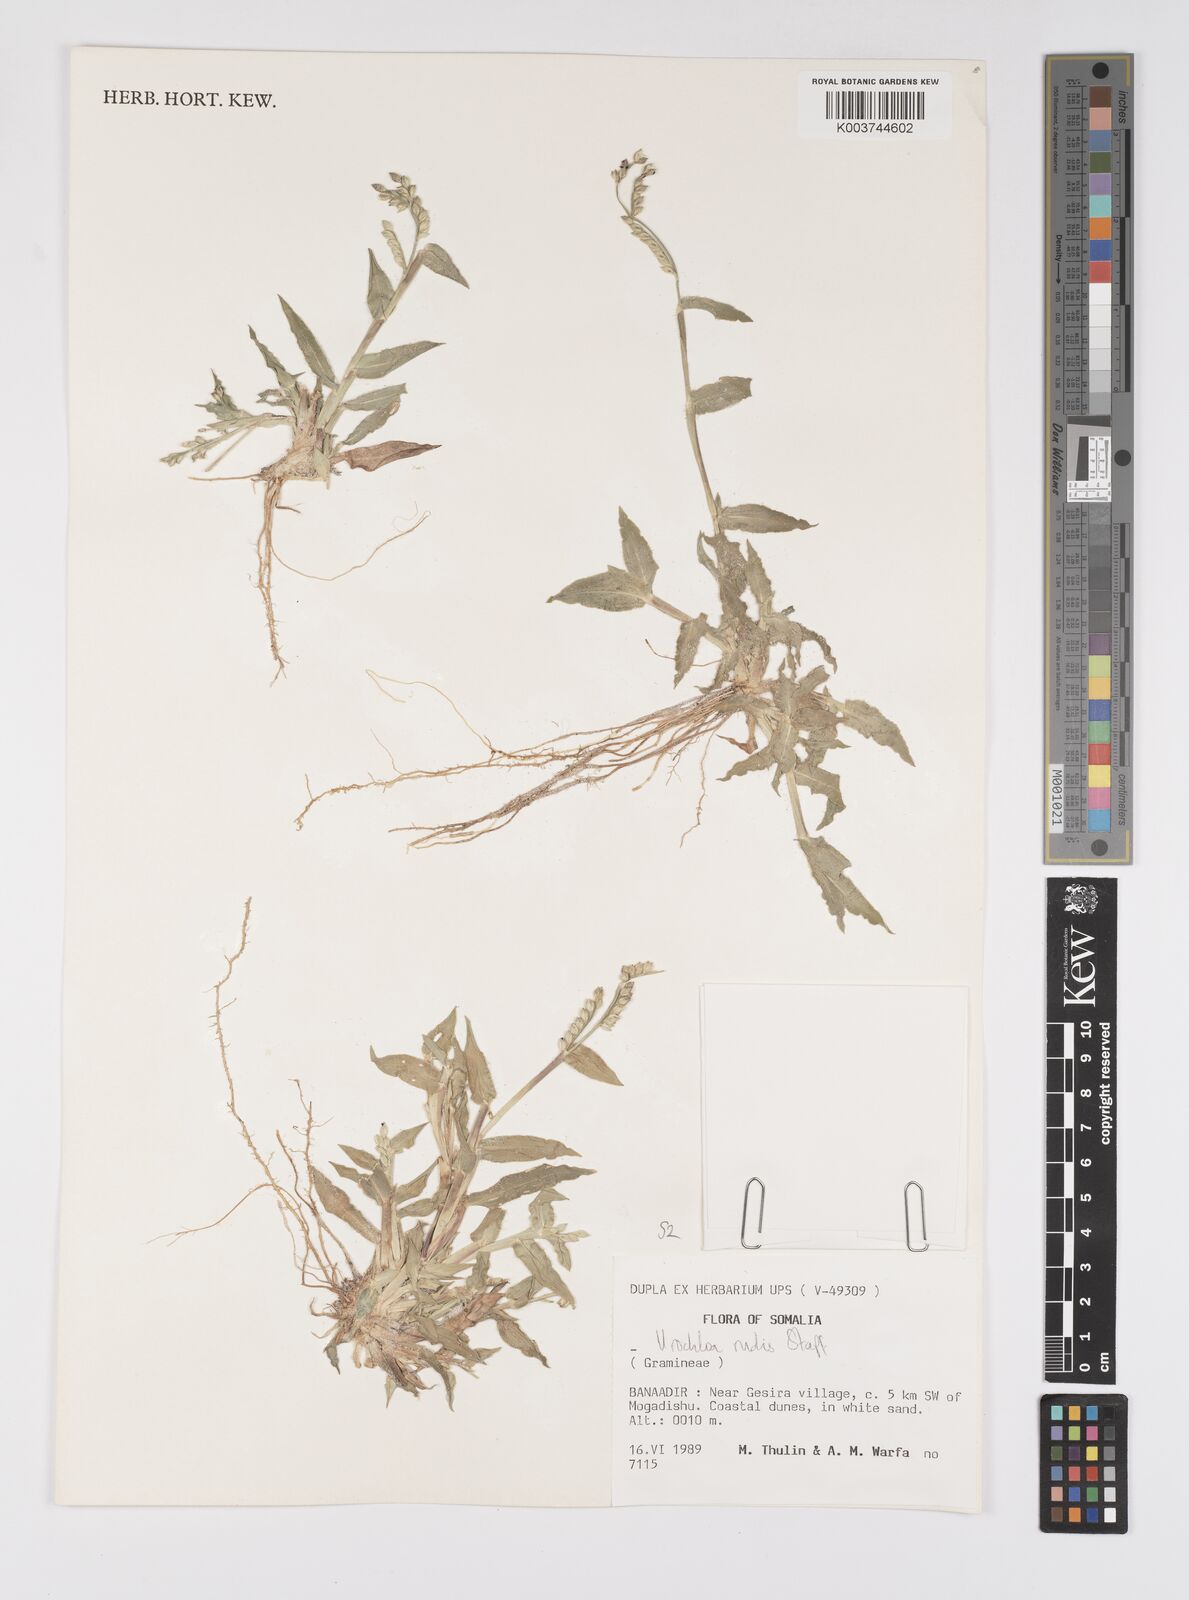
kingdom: Plantae
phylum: Tracheophyta
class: Liliopsida
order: Poales
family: Poaceae
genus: Urochloa
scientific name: Urochloa rudis
